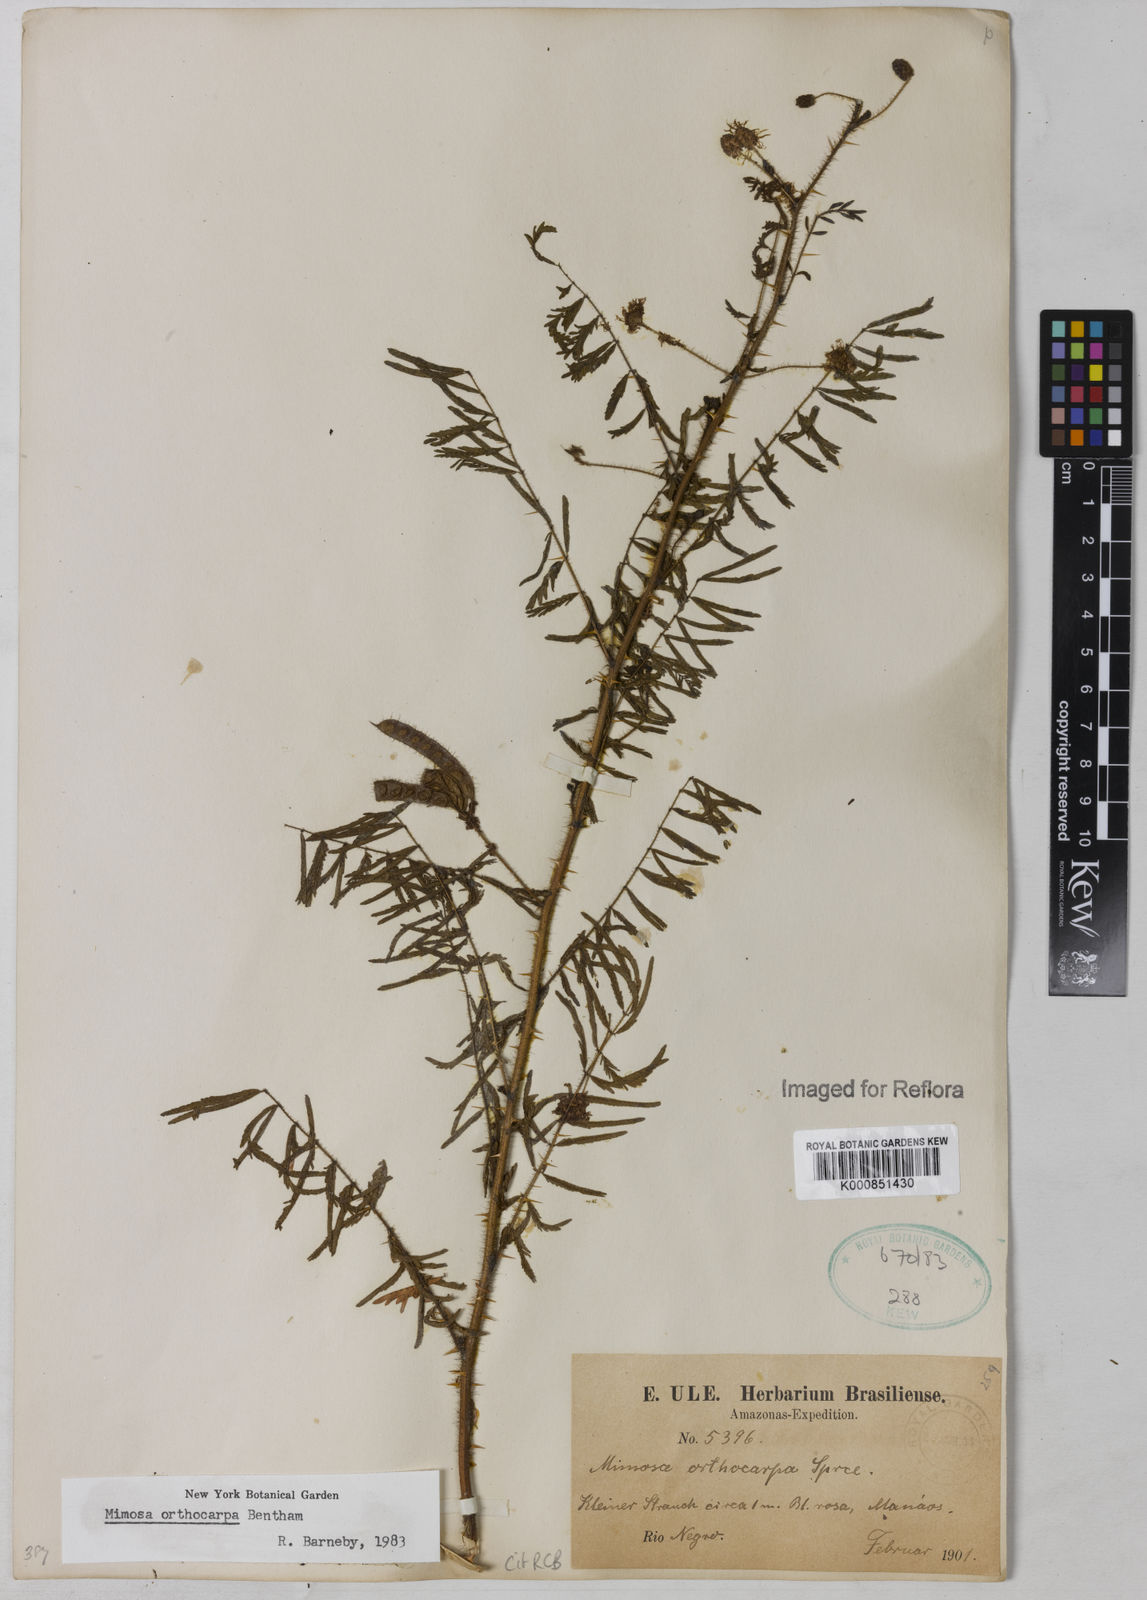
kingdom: Plantae
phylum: Tracheophyta
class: Magnoliopsida
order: Fabales
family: Fabaceae
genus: Mimosa
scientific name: Mimosa orthocarpa
